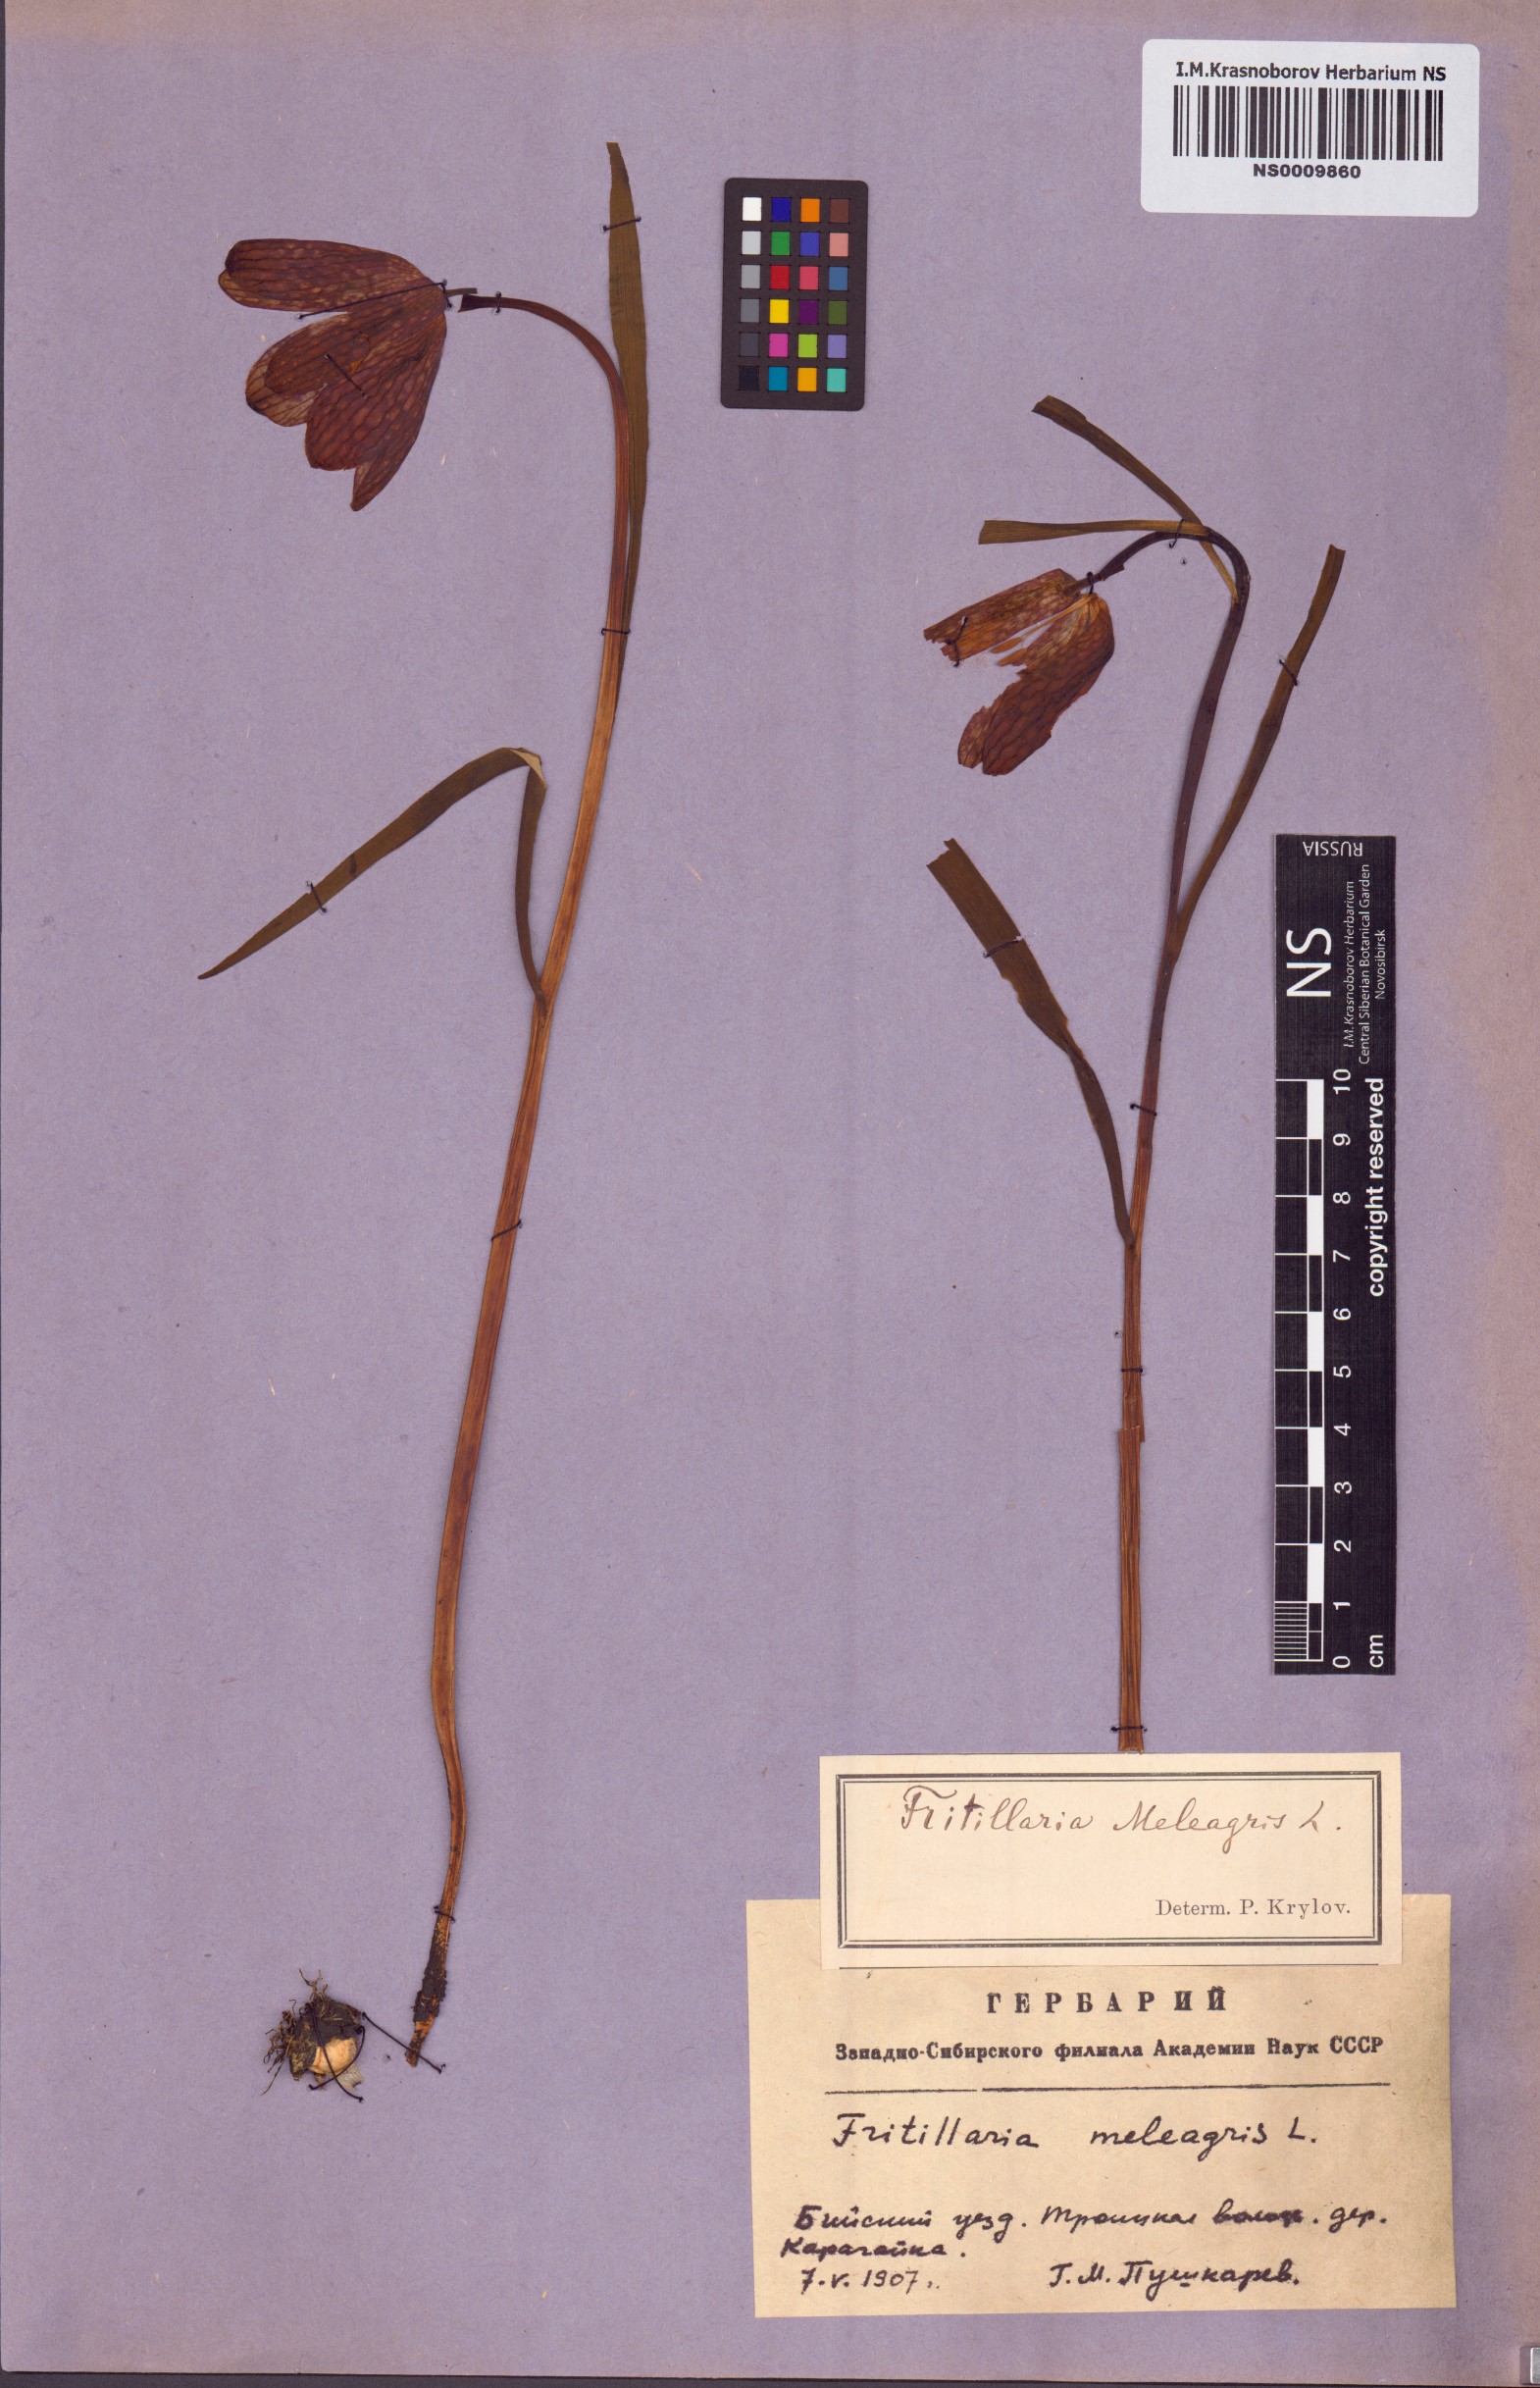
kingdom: Plantae
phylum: Tracheophyta
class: Liliopsida
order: Liliales
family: Liliaceae
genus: Fritillaria
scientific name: Fritillaria meleagris
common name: Fritillary
